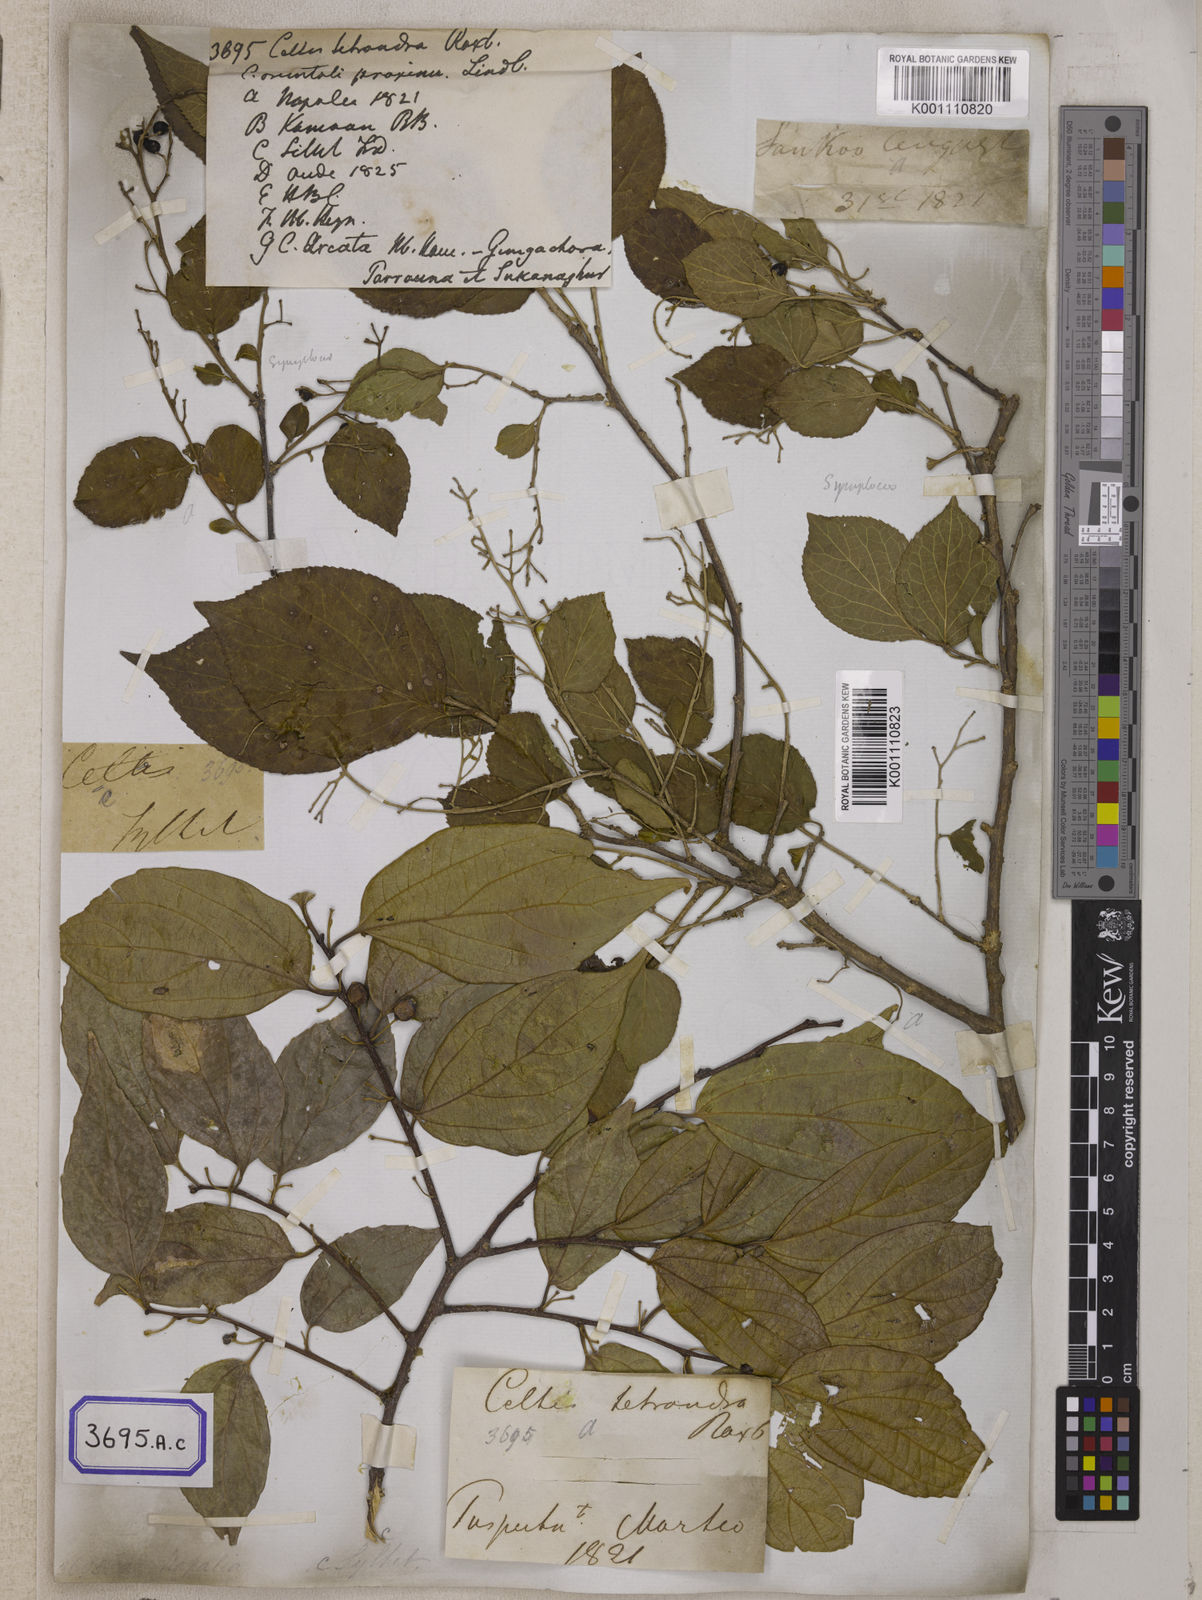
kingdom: Plantae
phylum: Tracheophyta
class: Magnoliopsida
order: Rosales
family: Cannabaceae
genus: Celtis
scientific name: Celtis
